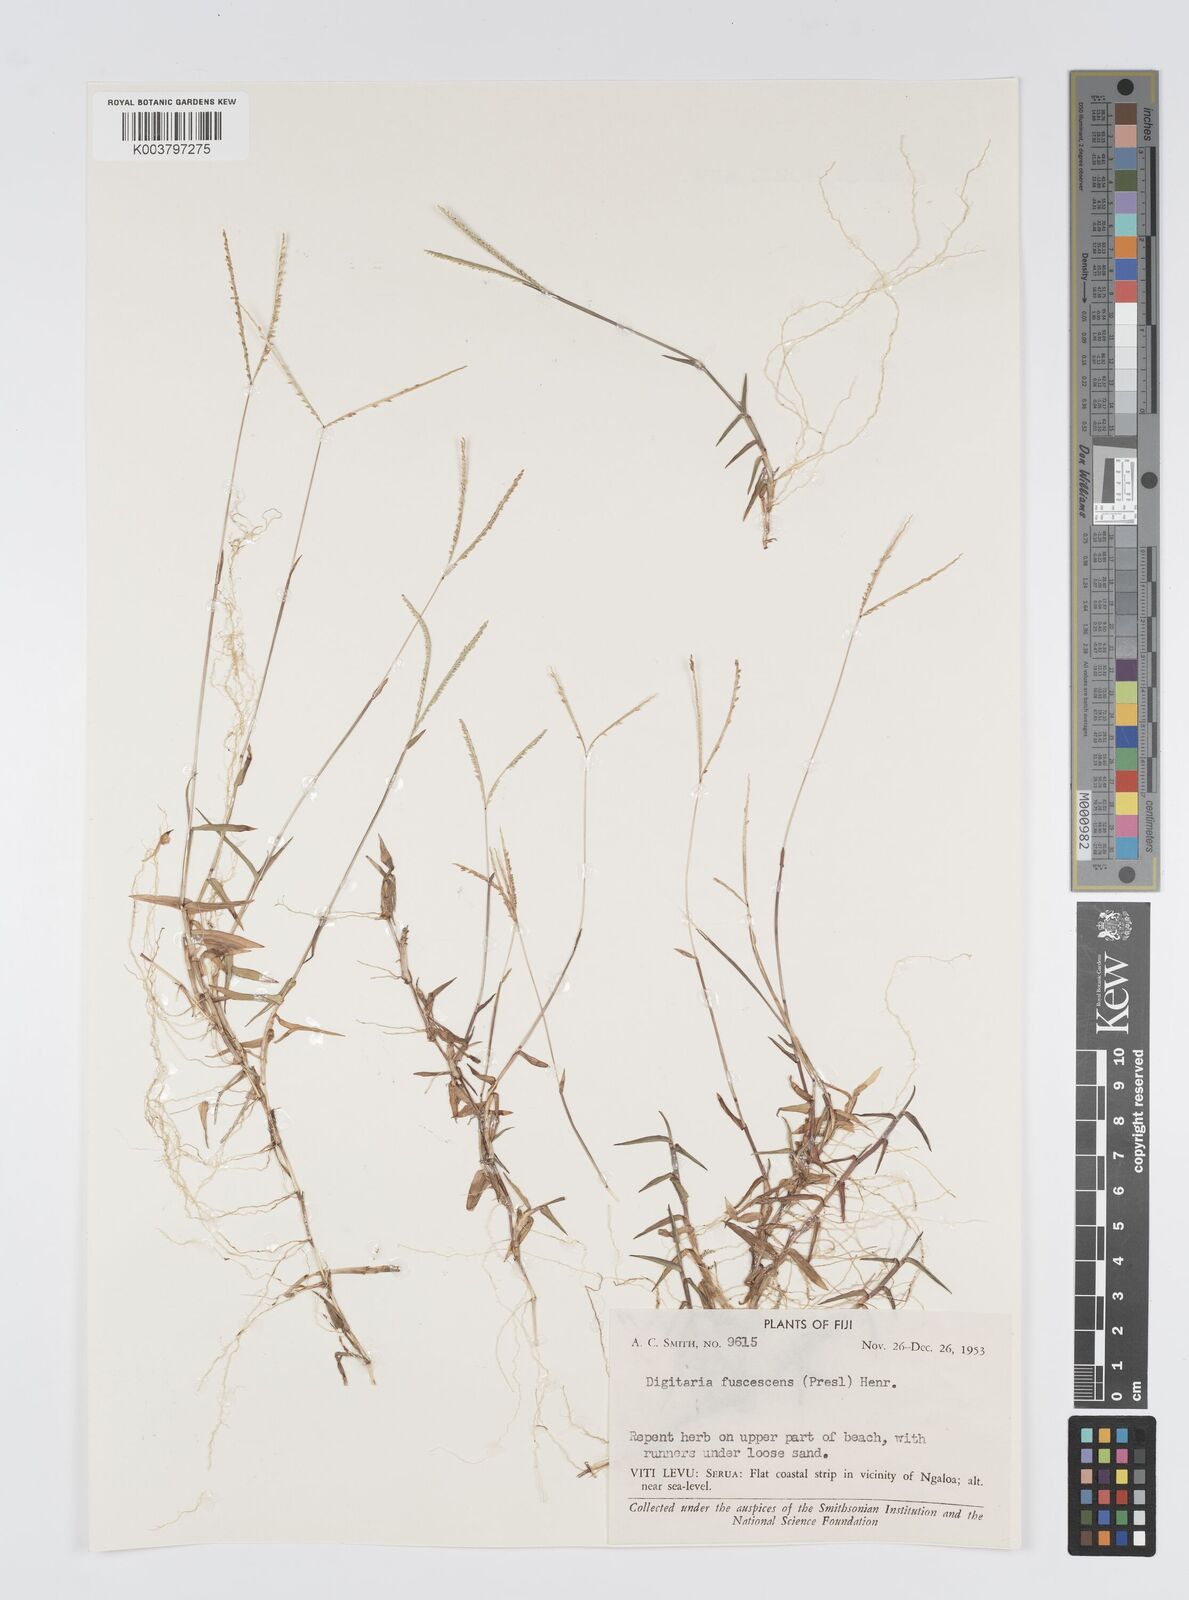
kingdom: Plantae
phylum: Tracheophyta
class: Liliopsida
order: Poales
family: Poaceae
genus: Digitaria
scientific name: Digitaria fuscescens
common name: Yellow crabgrass
